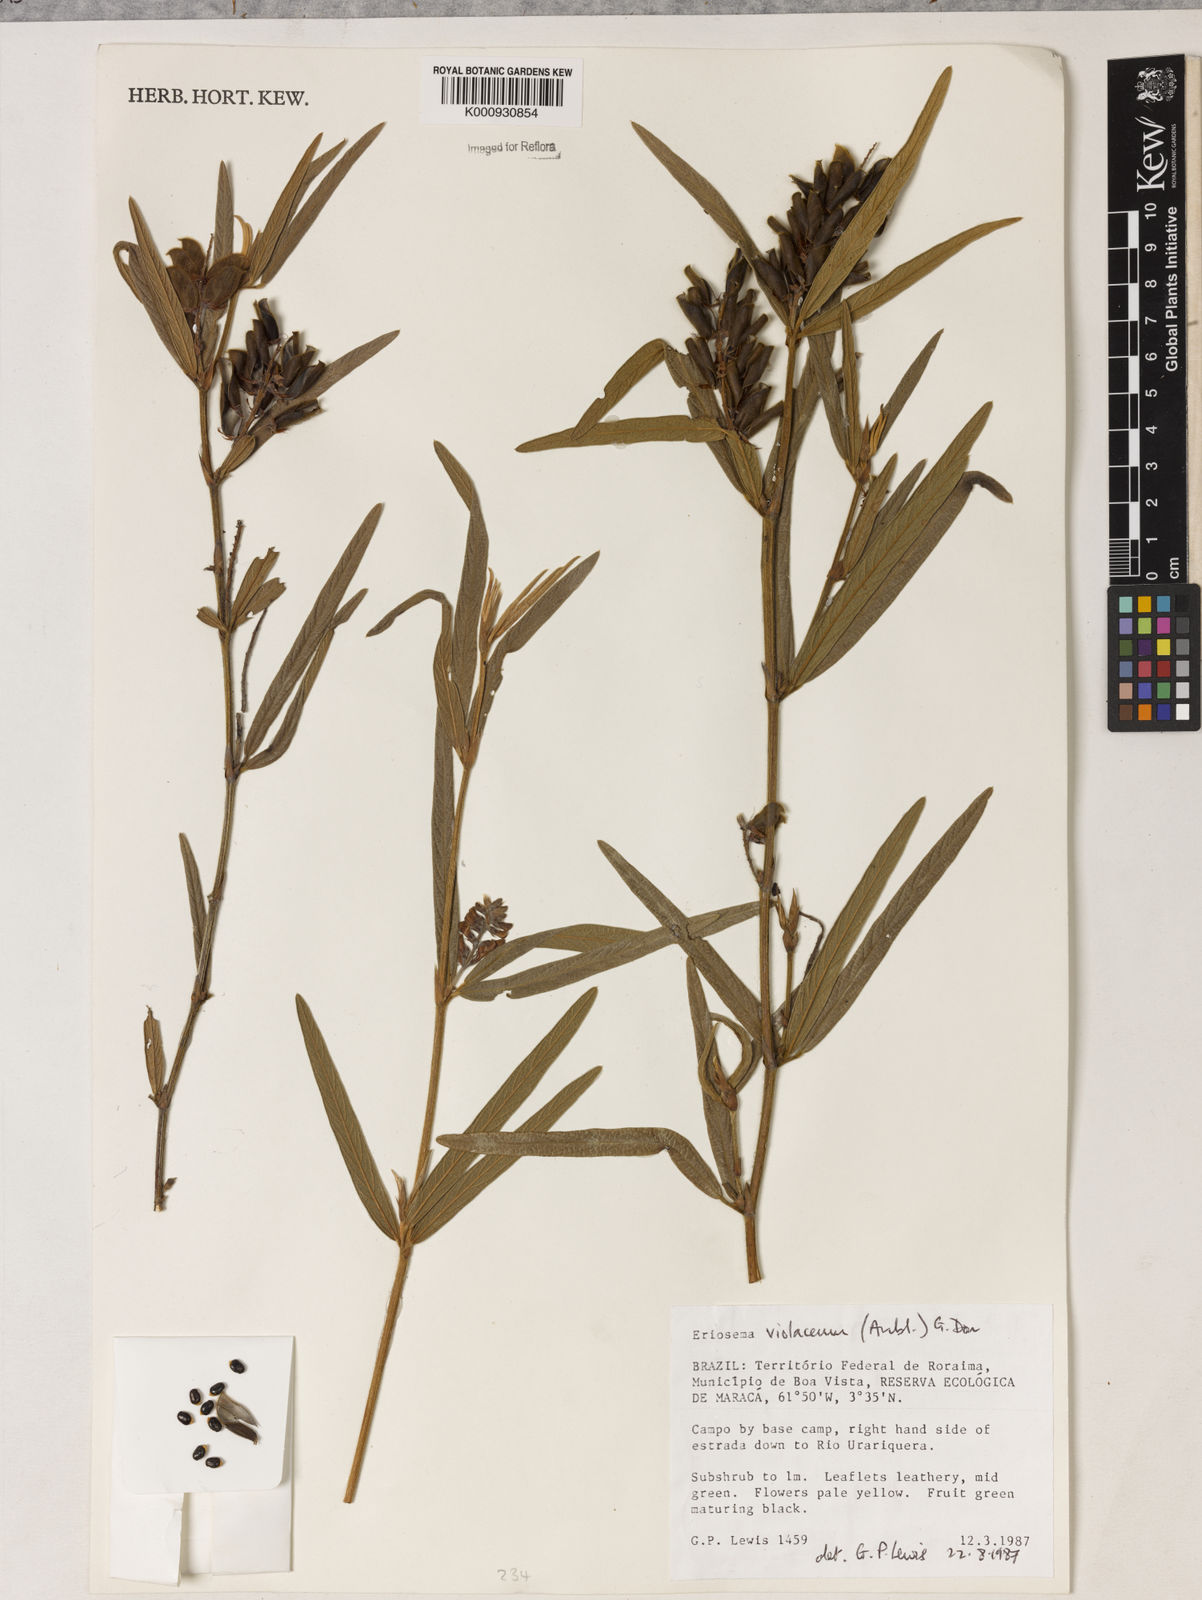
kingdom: Plantae
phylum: Tracheophyta
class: Magnoliopsida
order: Fabales
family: Fabaceae
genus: Eriosema
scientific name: Eriosema violaceum
